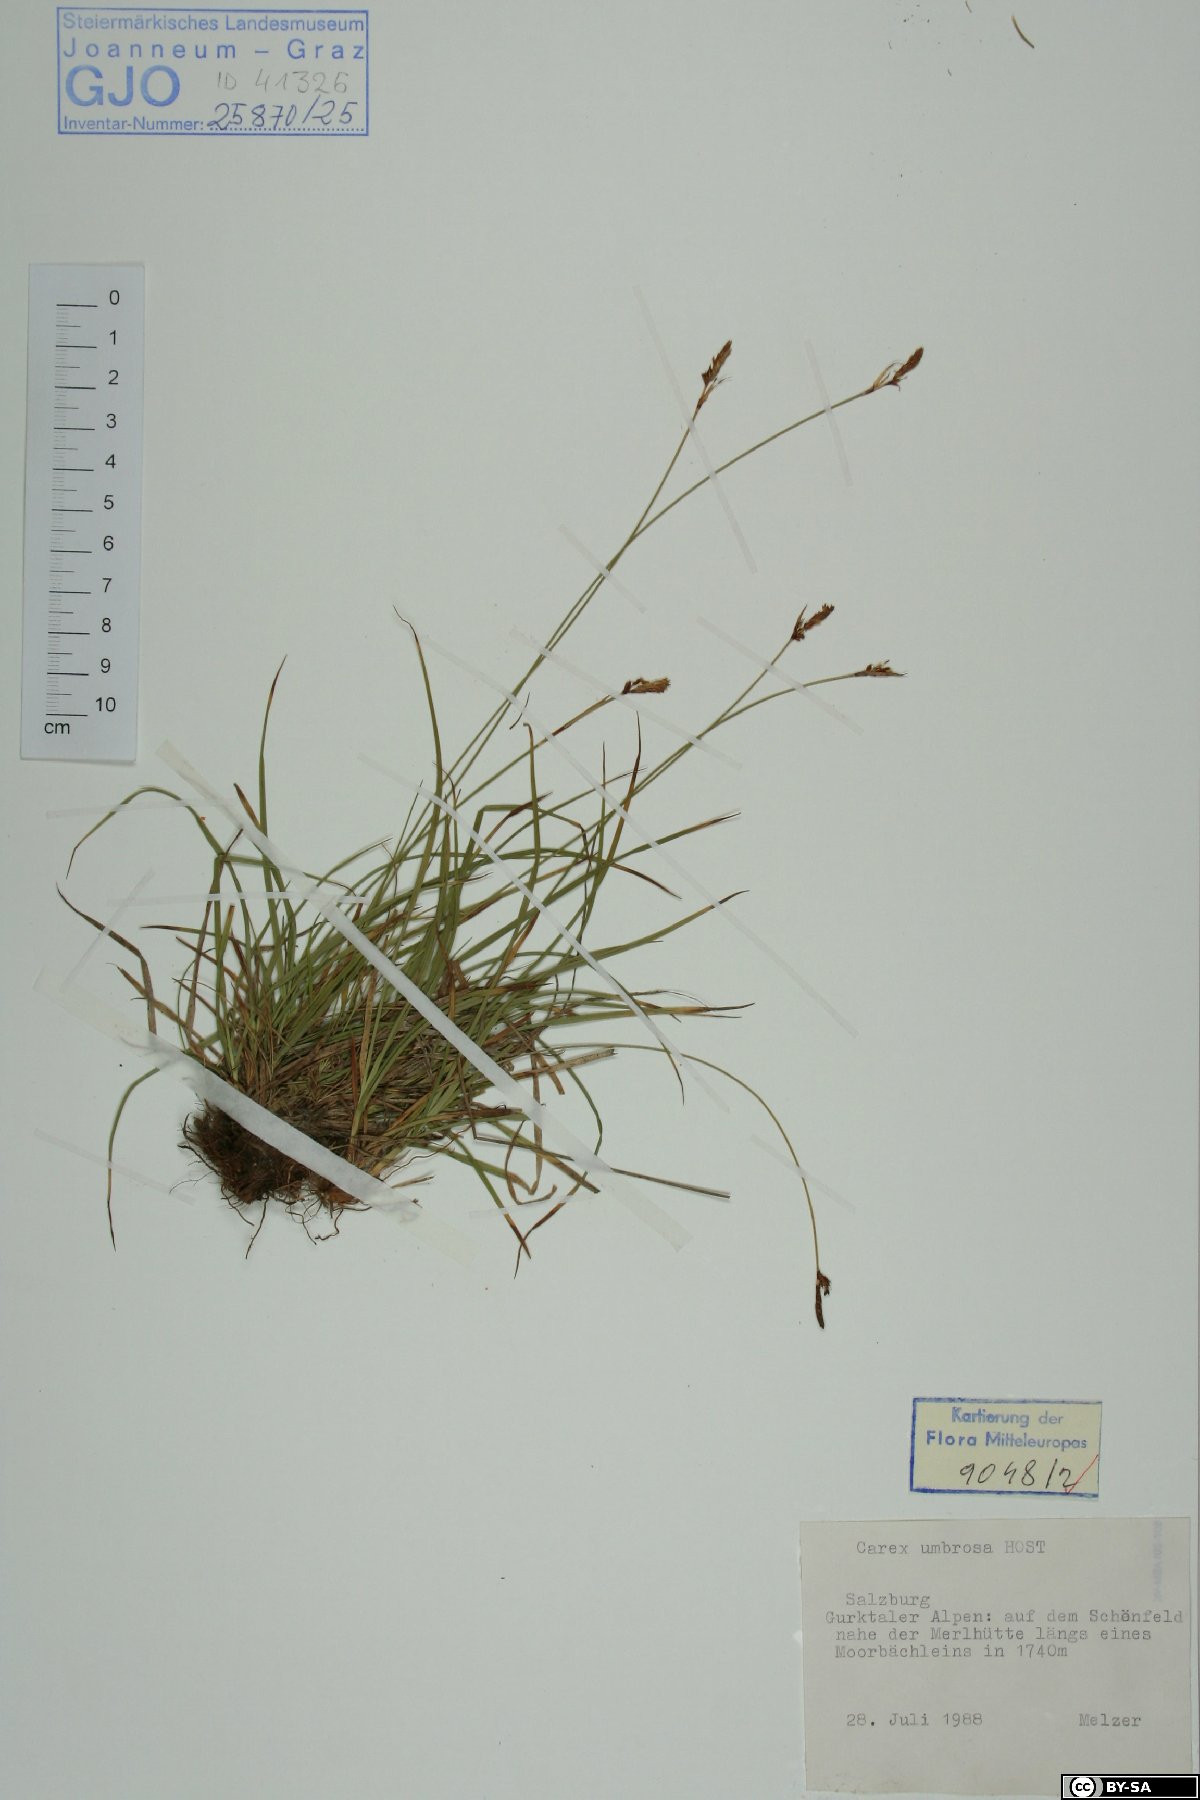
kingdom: Plantae
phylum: Tracheophyta
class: Liliopsida
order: Poales
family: Cyperaceae
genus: Carex
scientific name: Carex umbrosa
